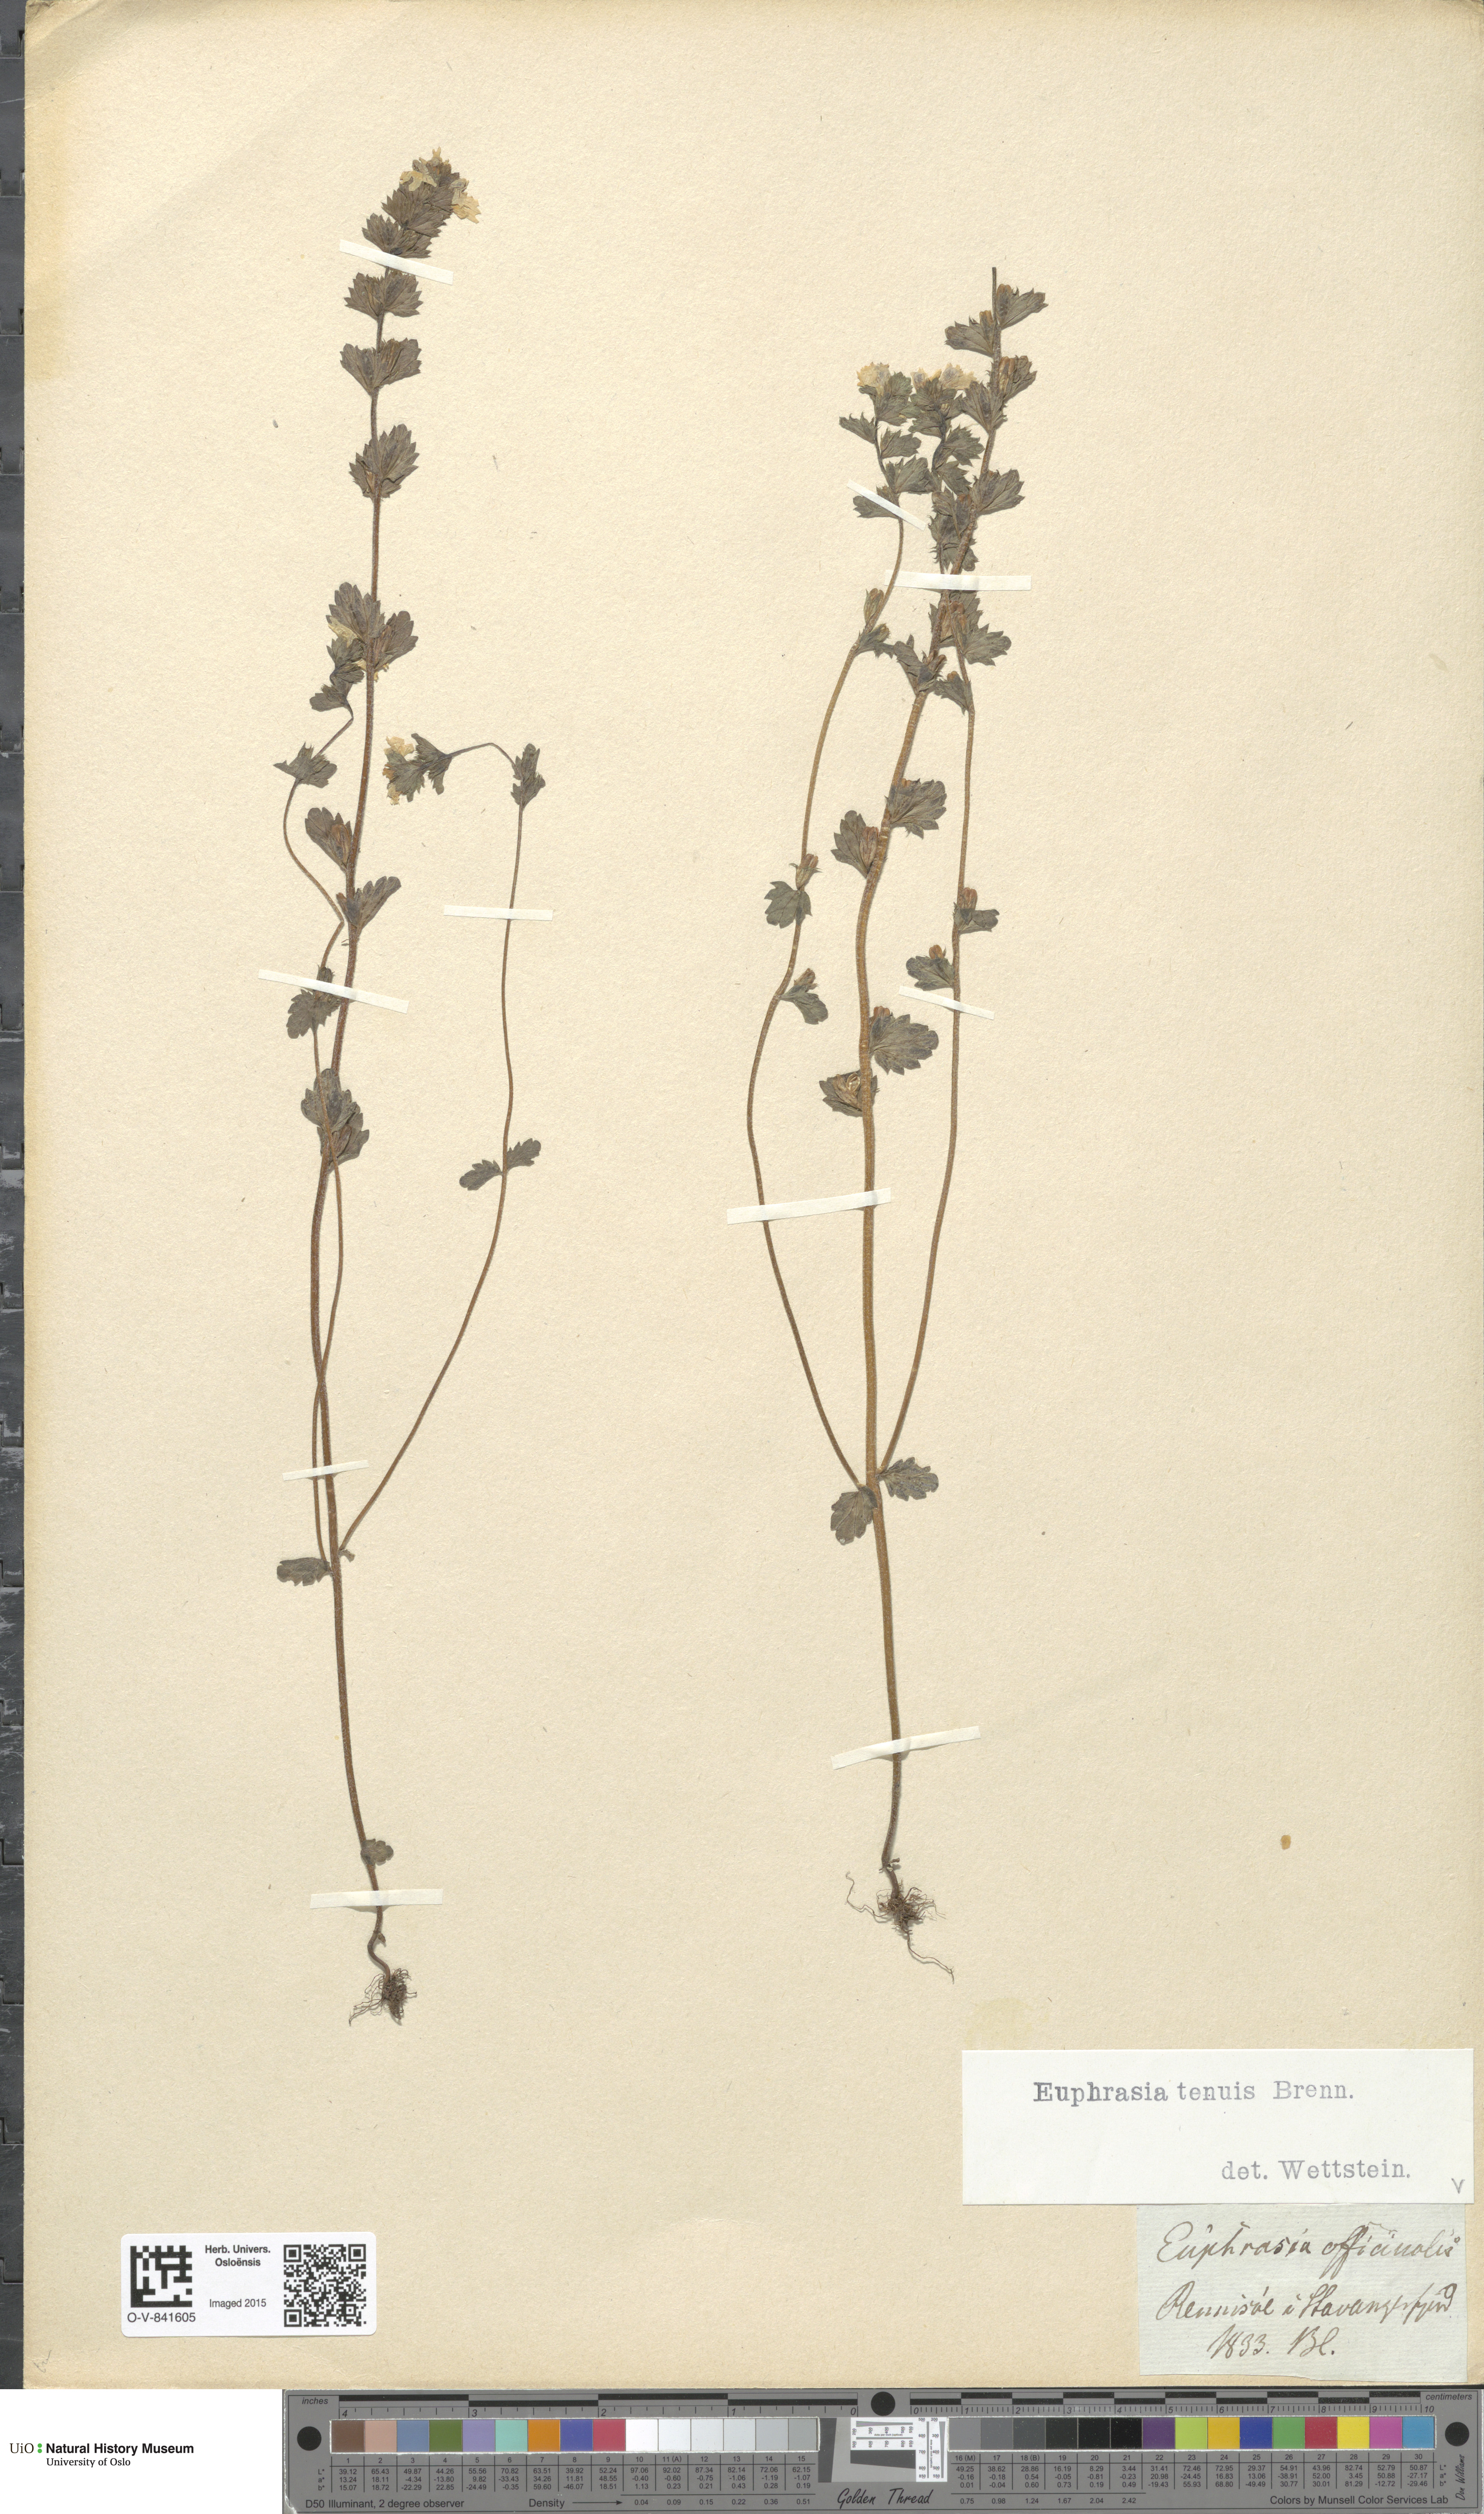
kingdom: Plantae
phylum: Tracheophyta
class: Magnoliopsida
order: Lamiales
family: Orobanchaceae
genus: Euphrasia
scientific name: Euphrasia vernalis
